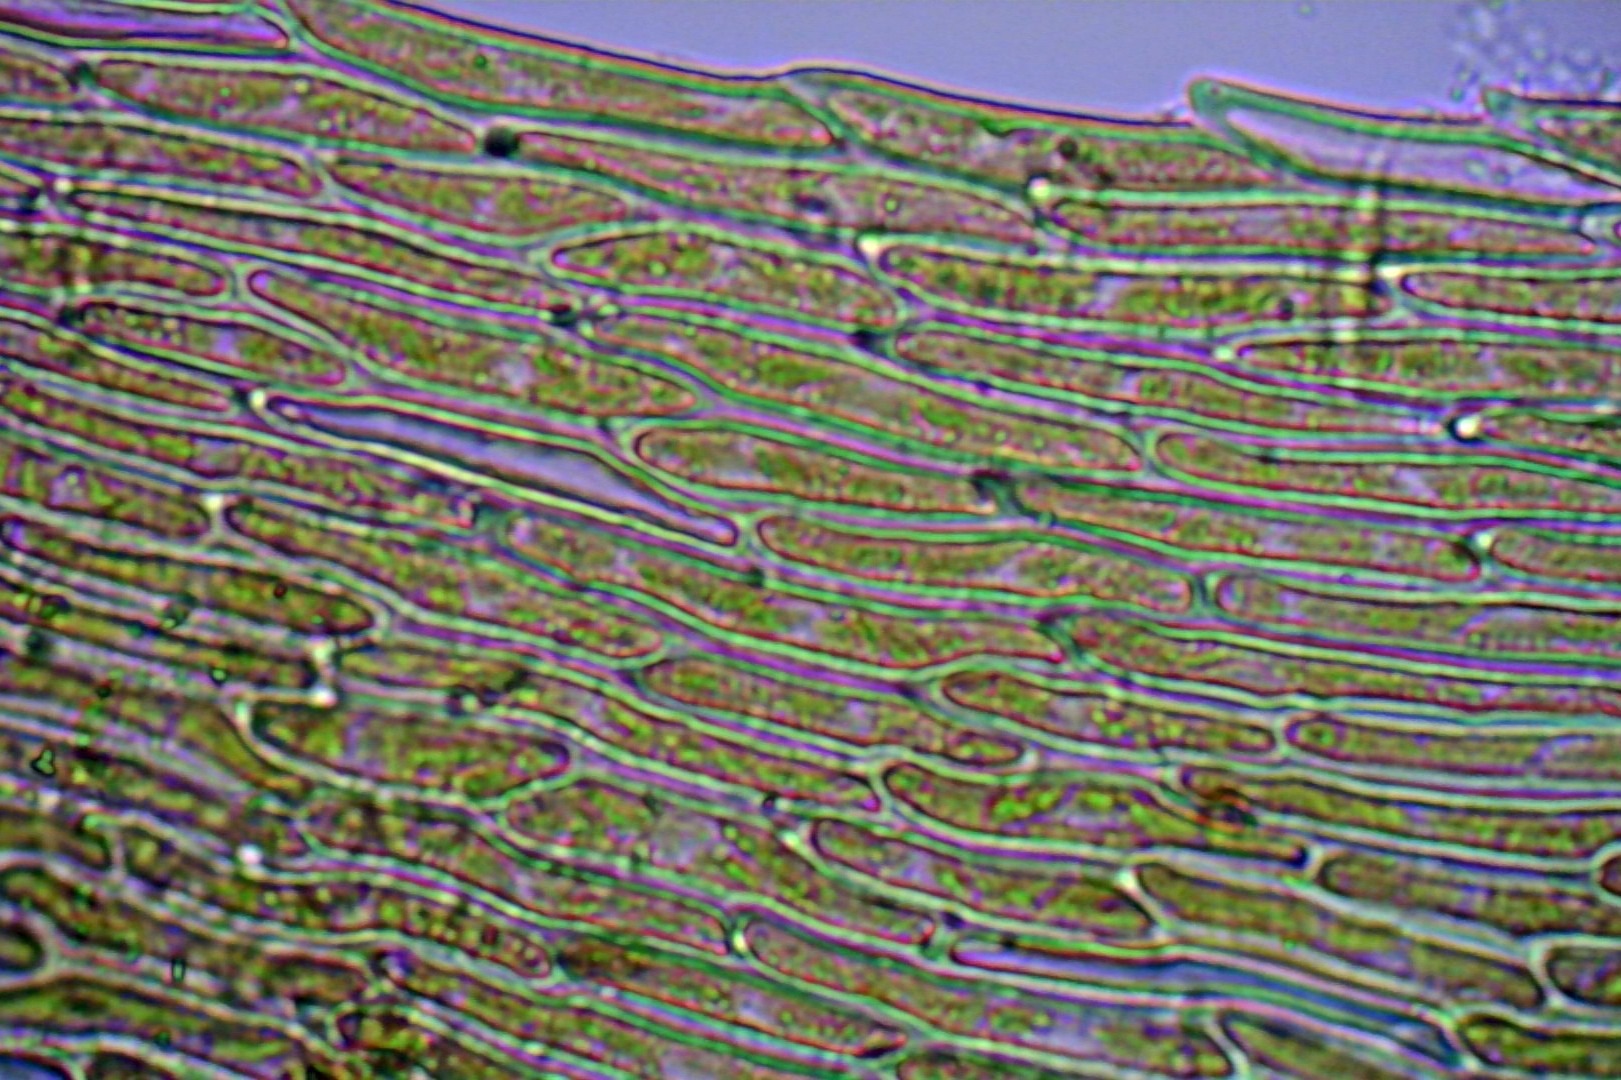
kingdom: Plantae
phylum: Bryophyta
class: Bryopsida
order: Hypnales
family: Myuriaceae
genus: Ctenidium
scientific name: Ctenidium molluscum
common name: Kalk-blødmos
